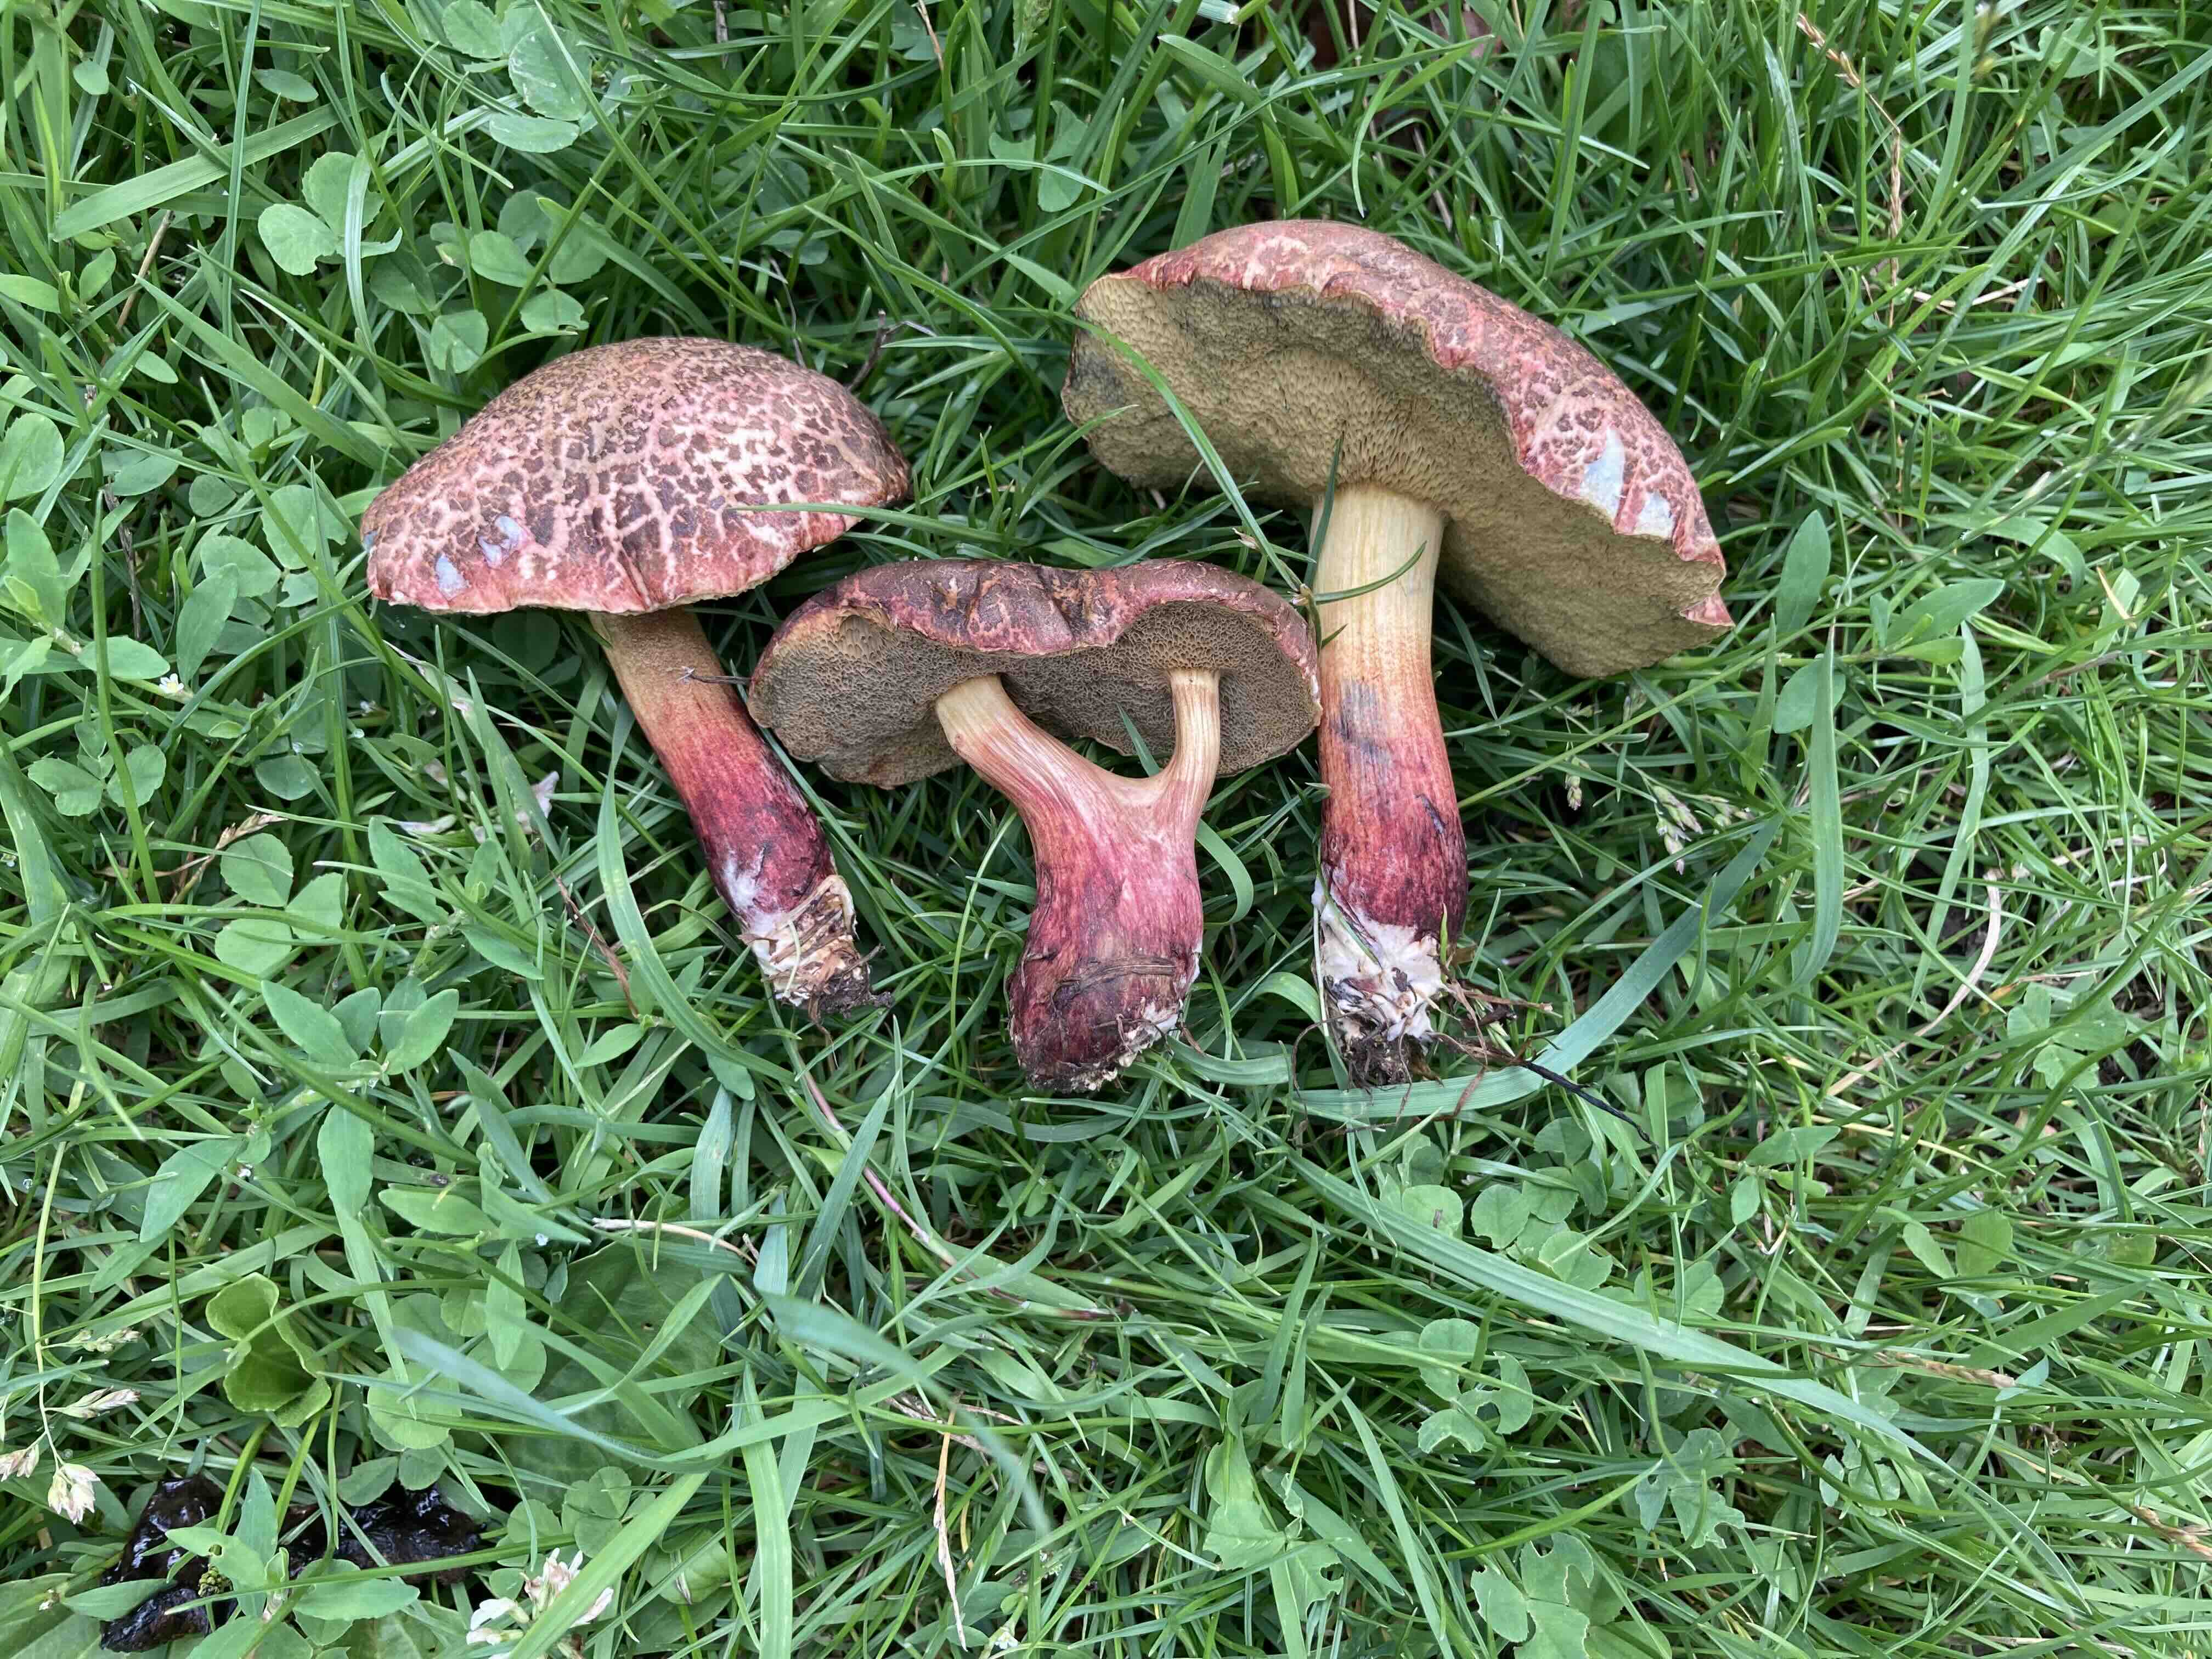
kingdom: Fungi
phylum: Basidiomycota
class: Agaricomycetes
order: Boletales
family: Boletaceae
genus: Xerocomellus
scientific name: Xerocomellus cisalpinus
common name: finsprukken rørhat
